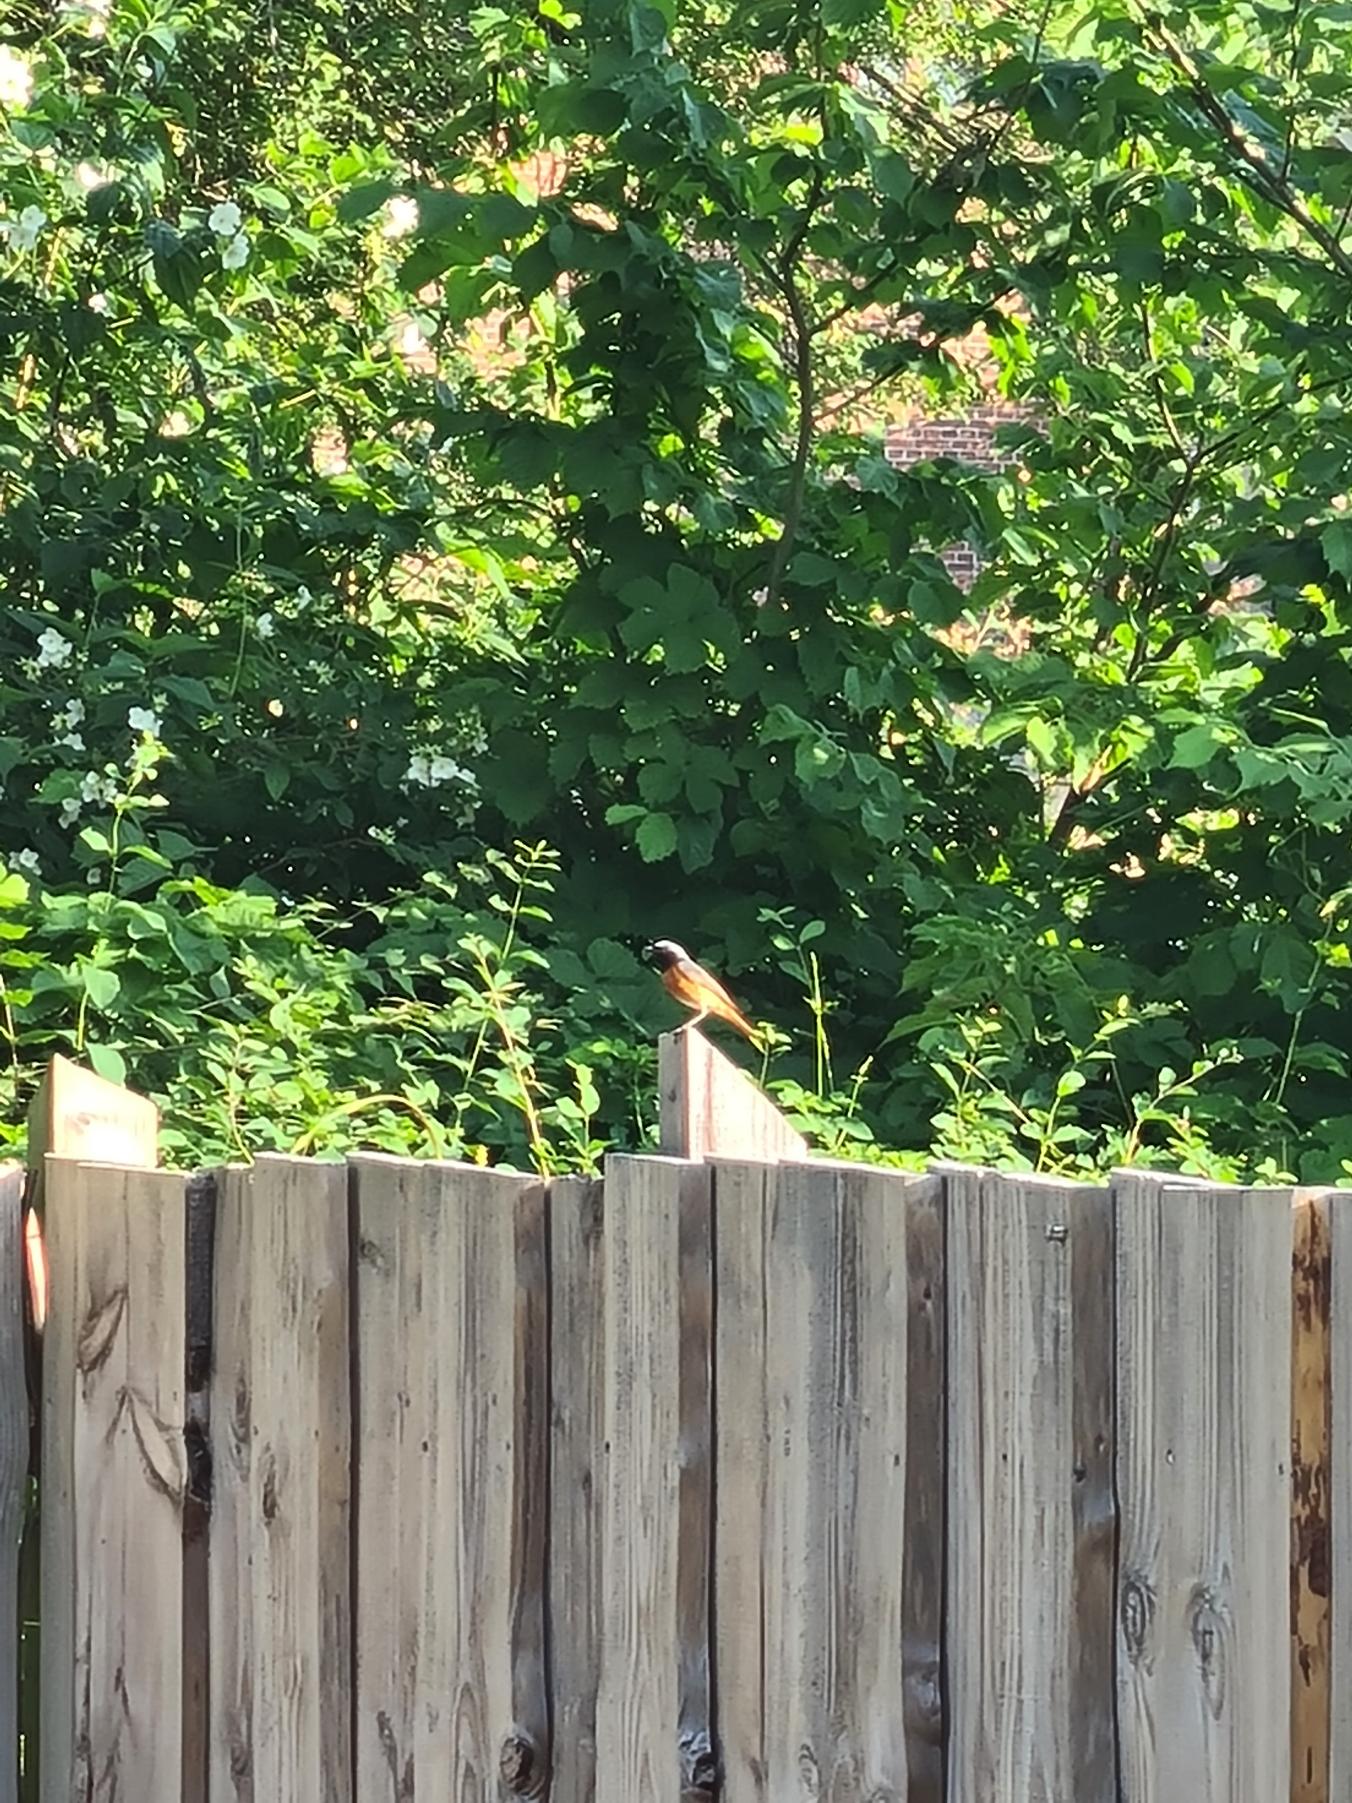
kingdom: Animalia
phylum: Chordata
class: Aves
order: Passeriformes
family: Muscicapidae
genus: Phoenicurus
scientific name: Phoenicurus phoenicurus
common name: Rødstjert
